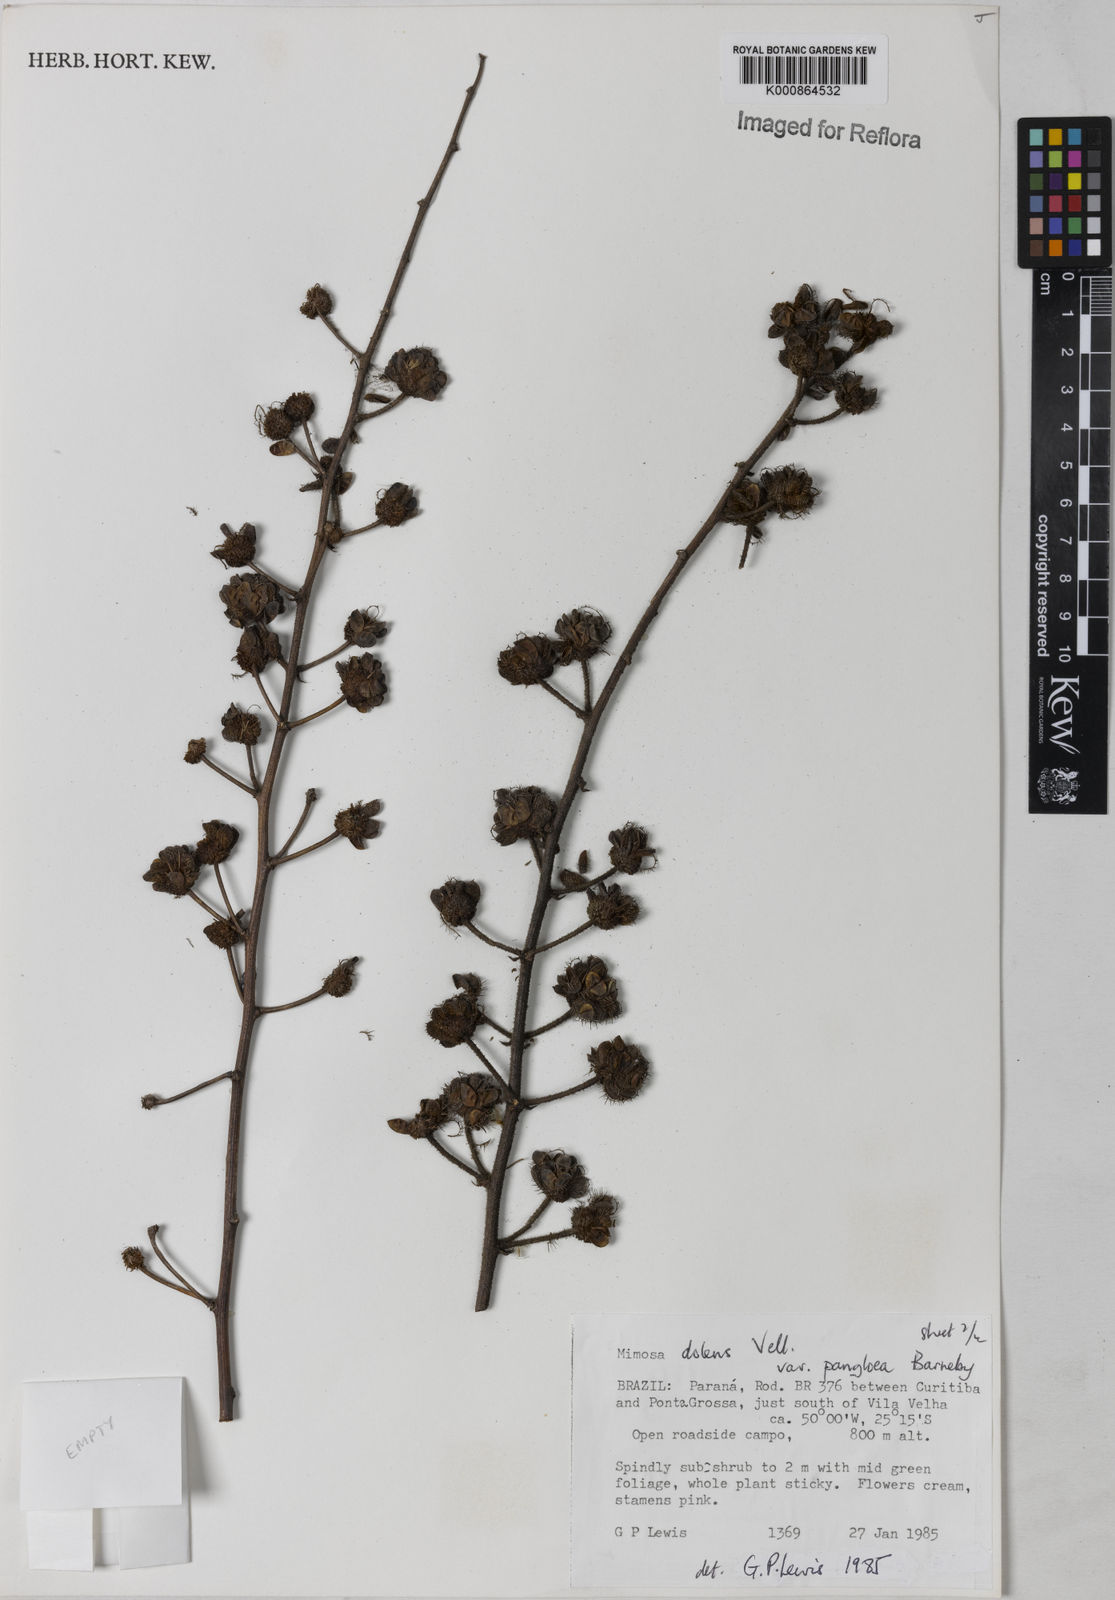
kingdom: Plantae
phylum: Tracheophyta
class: Magnoliopsida
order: Fabales
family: Fabaceae
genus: Mimosa
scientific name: Mimosa dolens
